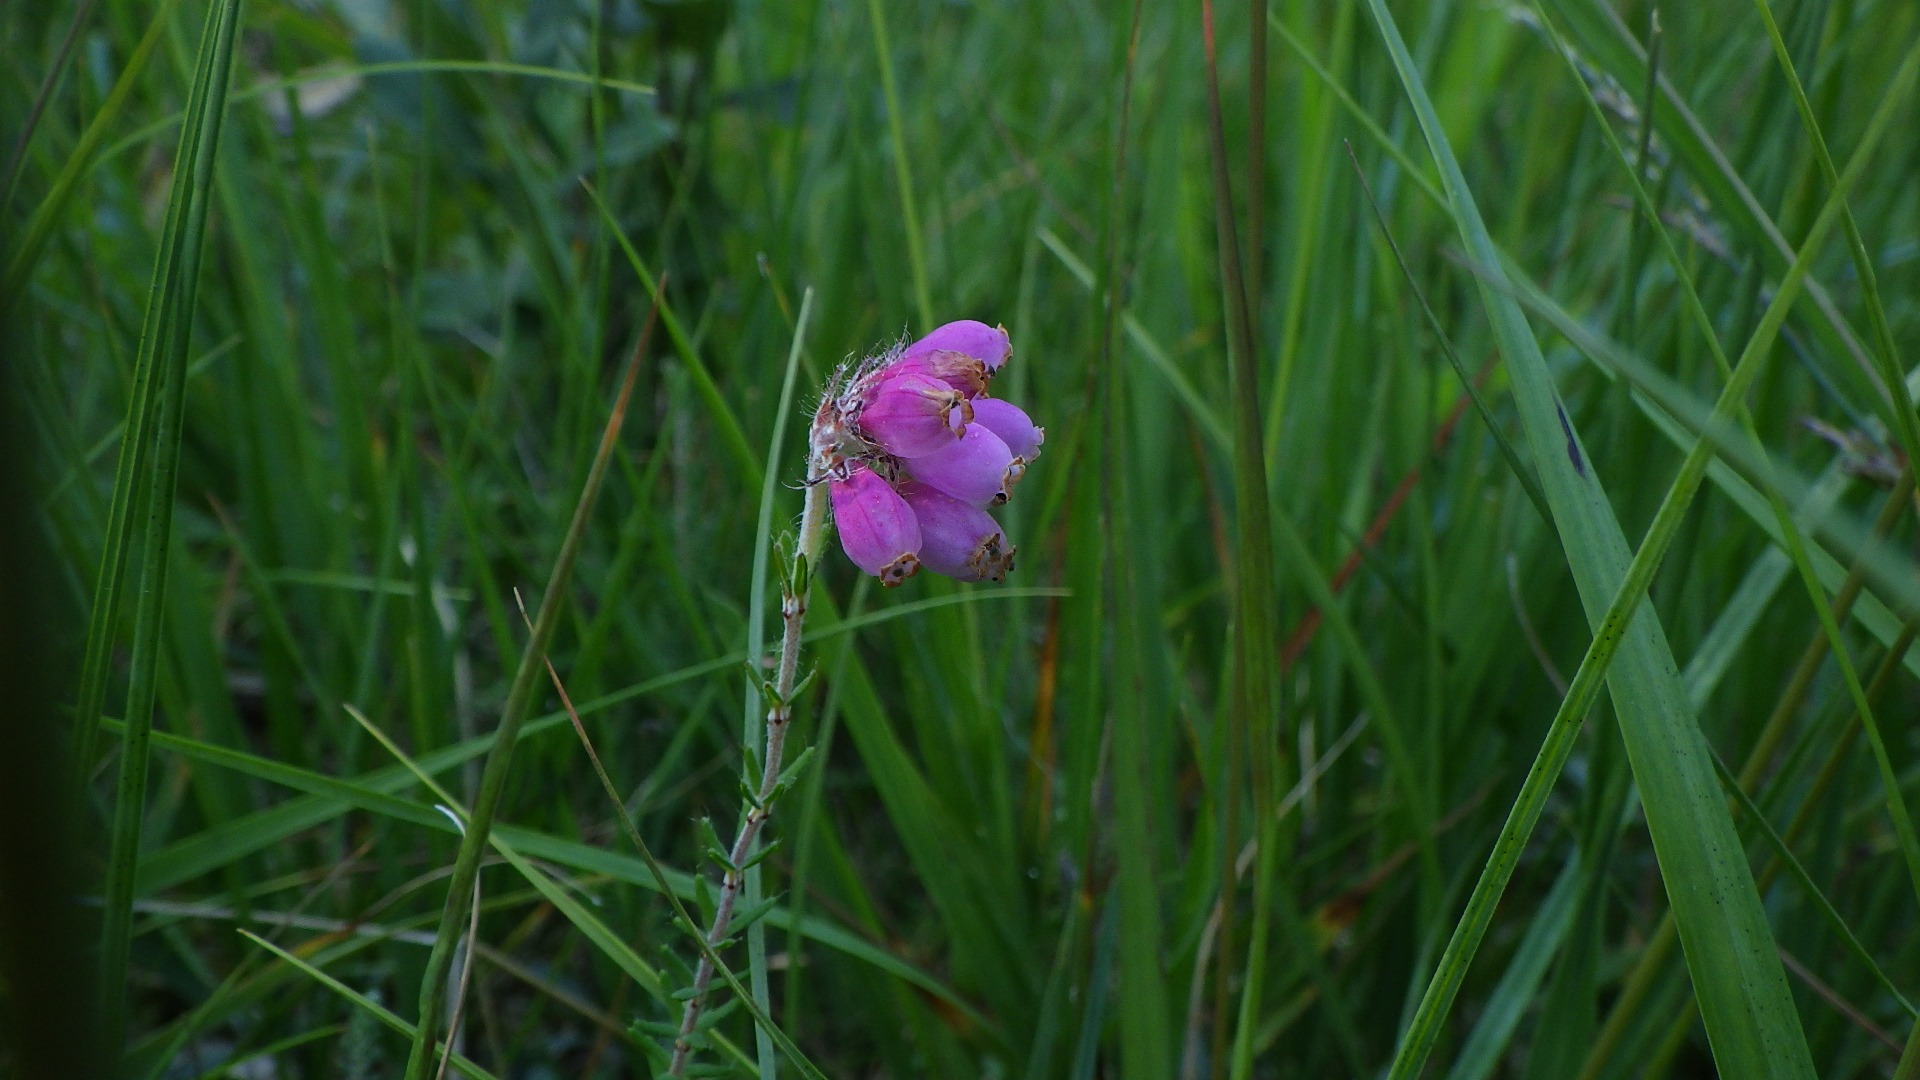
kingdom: Plantae
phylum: Tracheophyta
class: Magnoliopsida
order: Ericales
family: Ericaceae
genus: Erica
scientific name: Erica tetralix
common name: Klokkelyng
